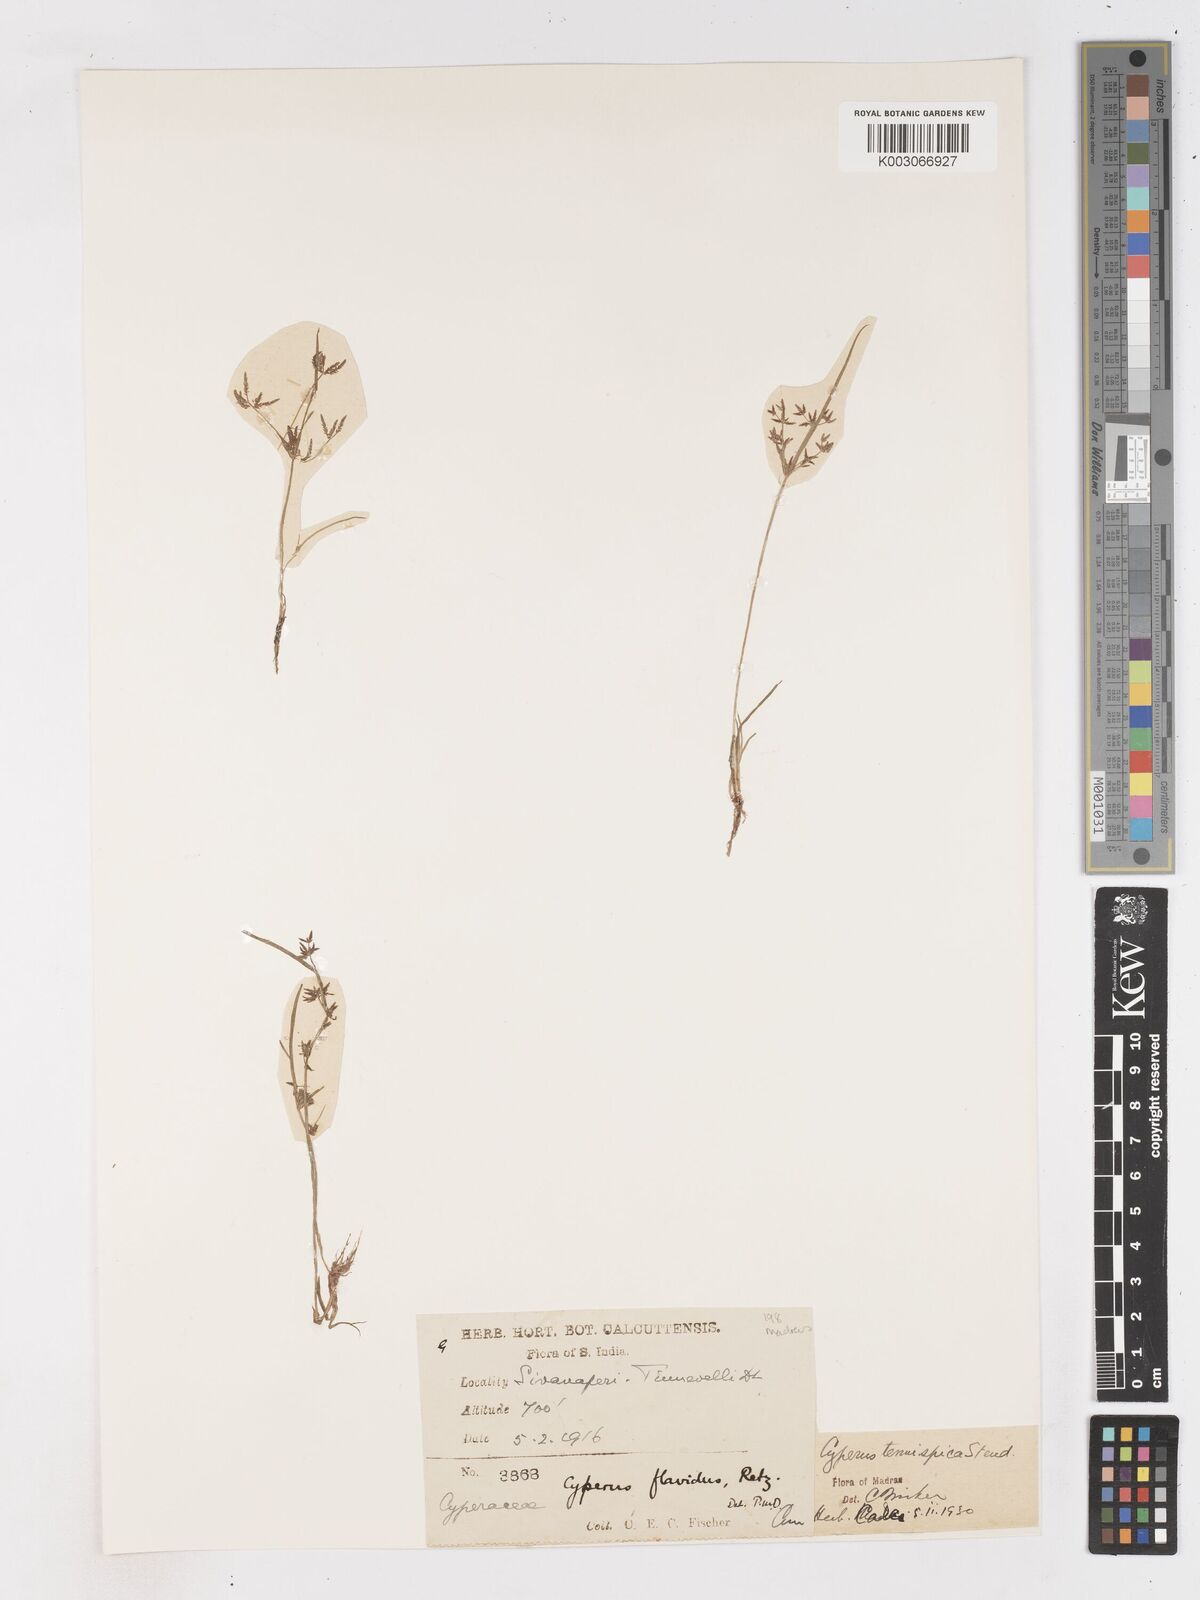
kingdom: Plantae
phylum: Tracheophyta
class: Liliopsida
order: Poales
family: Cyperaceae
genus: Cyperus
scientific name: Cyperus tenuispica
